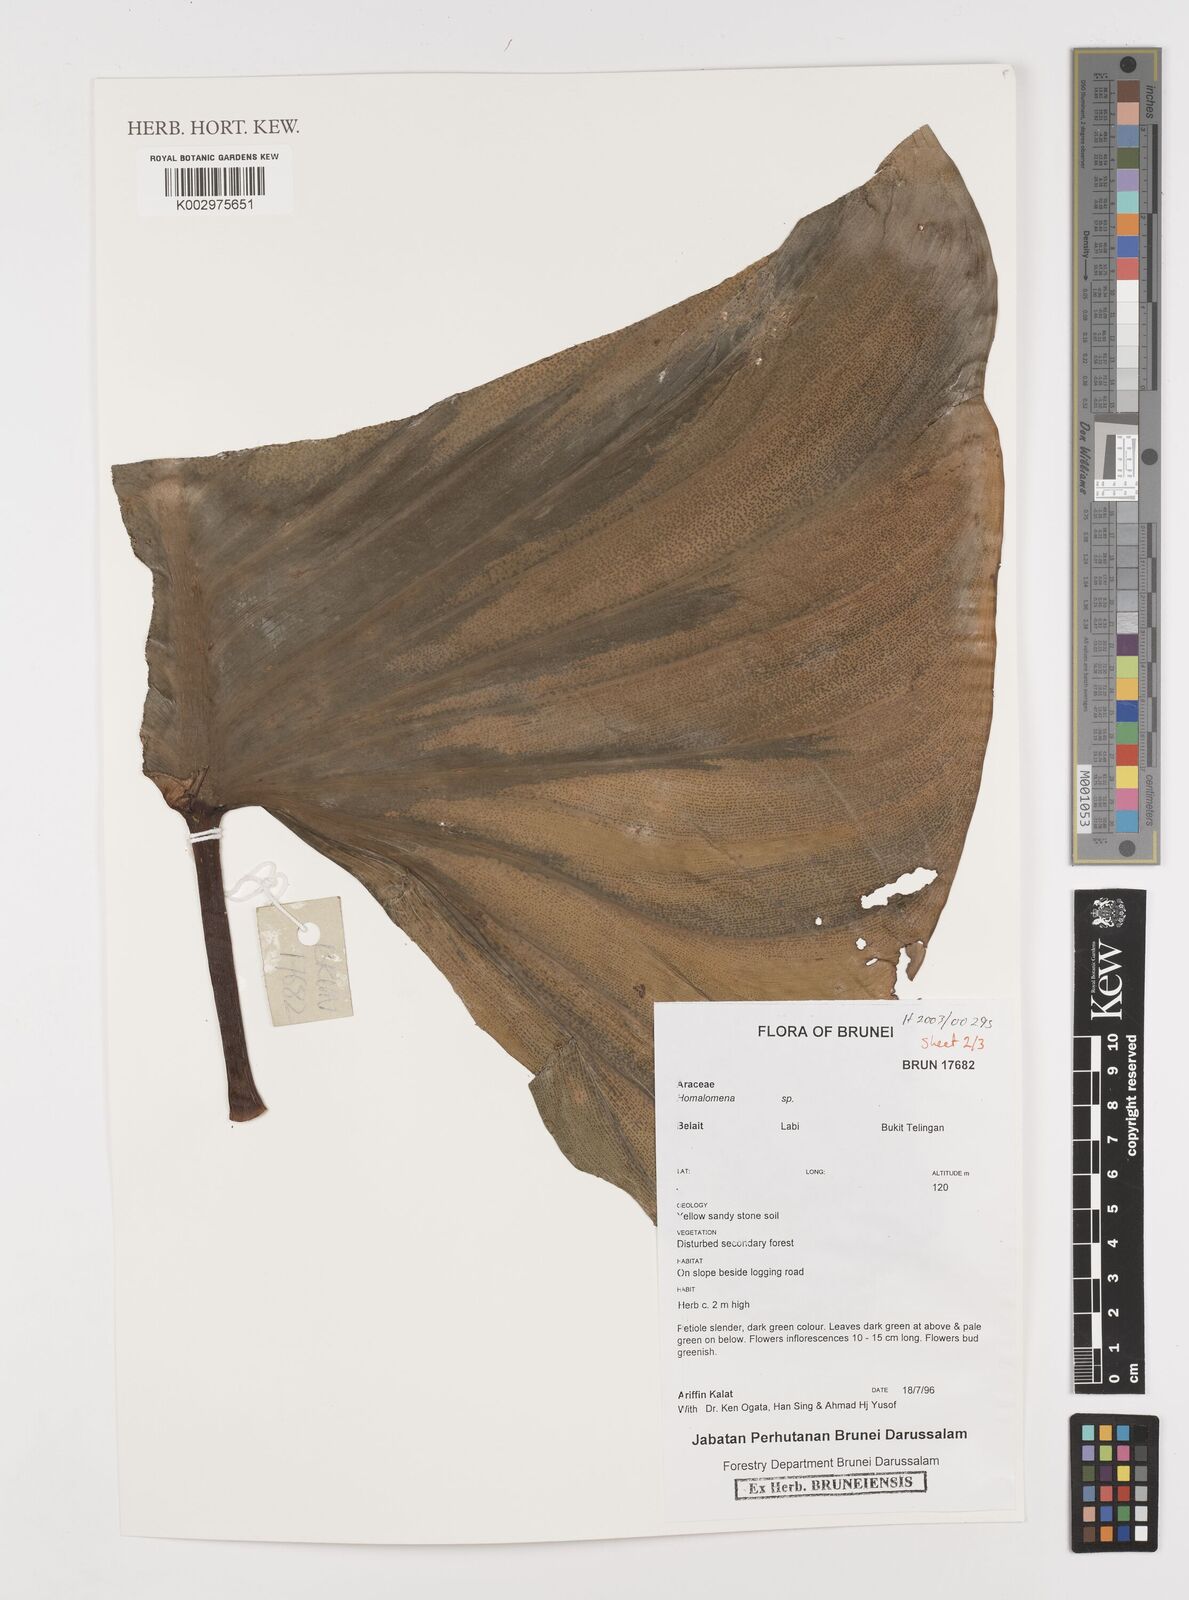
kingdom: Plantae
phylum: Tracheophyta
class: Liliopsida
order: Alismatales
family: Araceae
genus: Homalomena
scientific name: Homalomena
